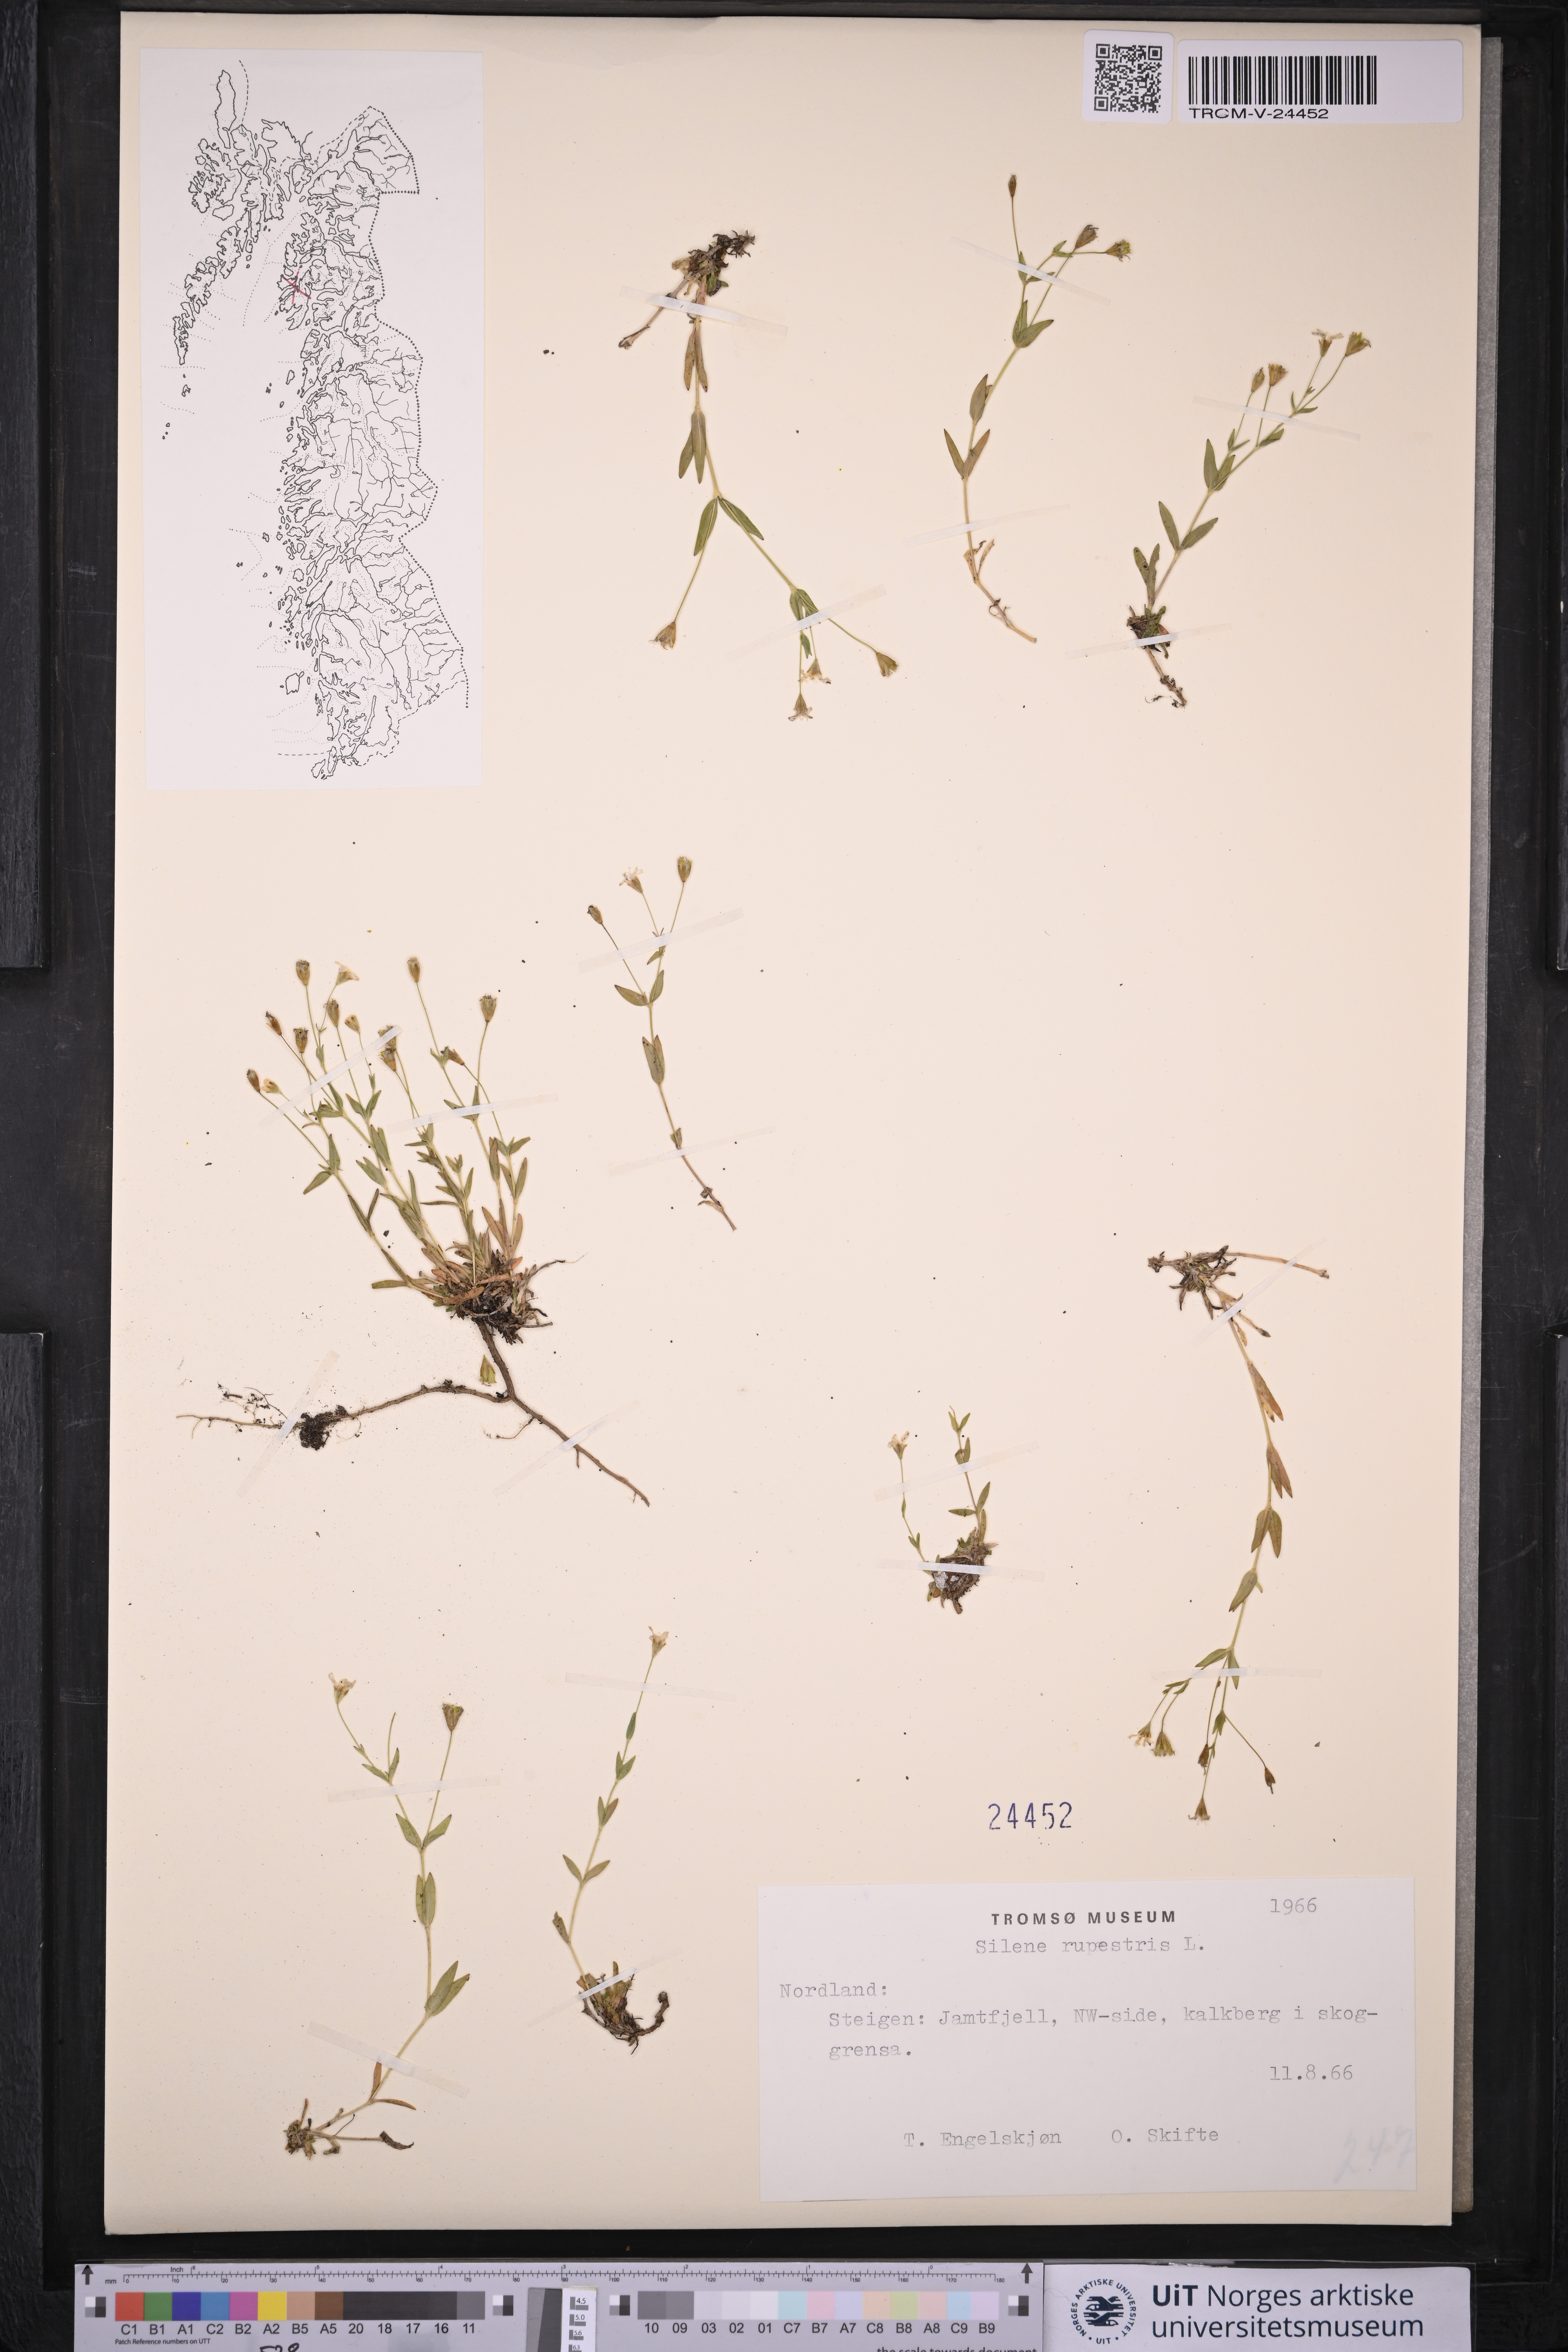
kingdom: Plantae
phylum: Tracheophyta
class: Magnoliopsida
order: Caryophyllales
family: Caryophyllaceae
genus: Atocion
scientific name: Atocion rupestre
